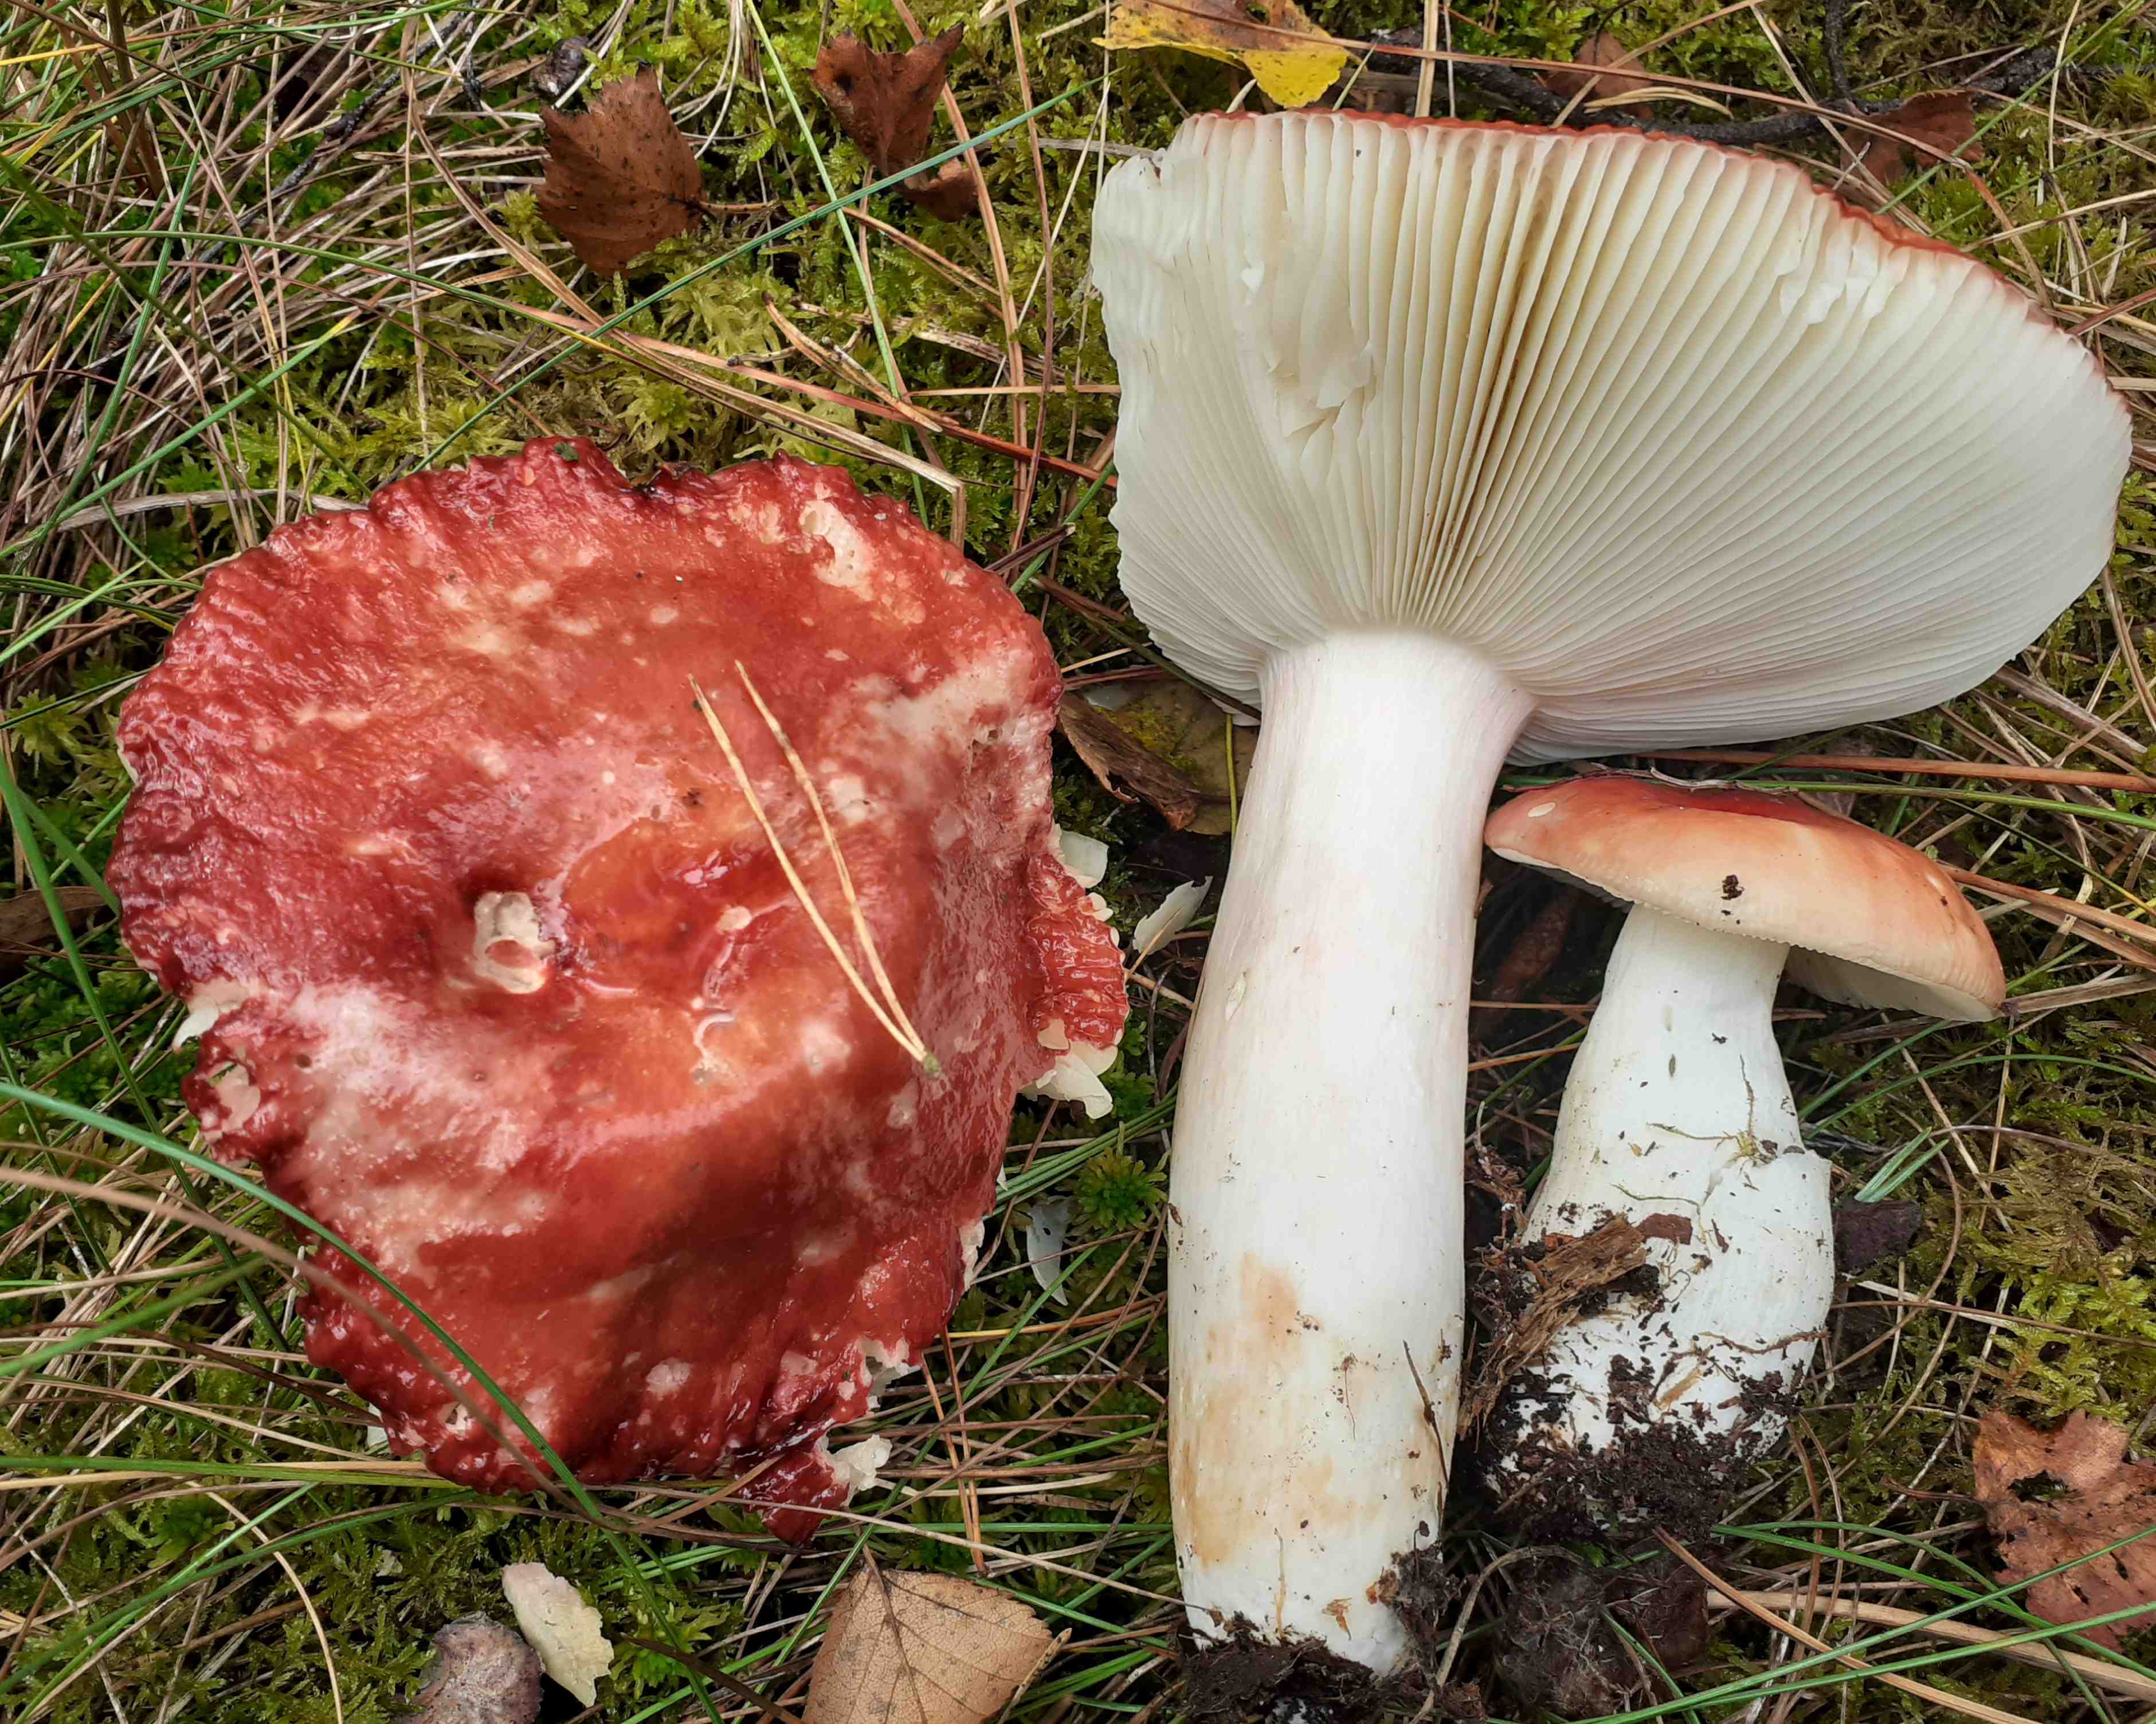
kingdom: Fungi
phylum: Basidiomycota
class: Agaricomycetes
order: Russulales
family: Russulaceae
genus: Russula
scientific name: Russula paludosa
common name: prægtig skørhat
